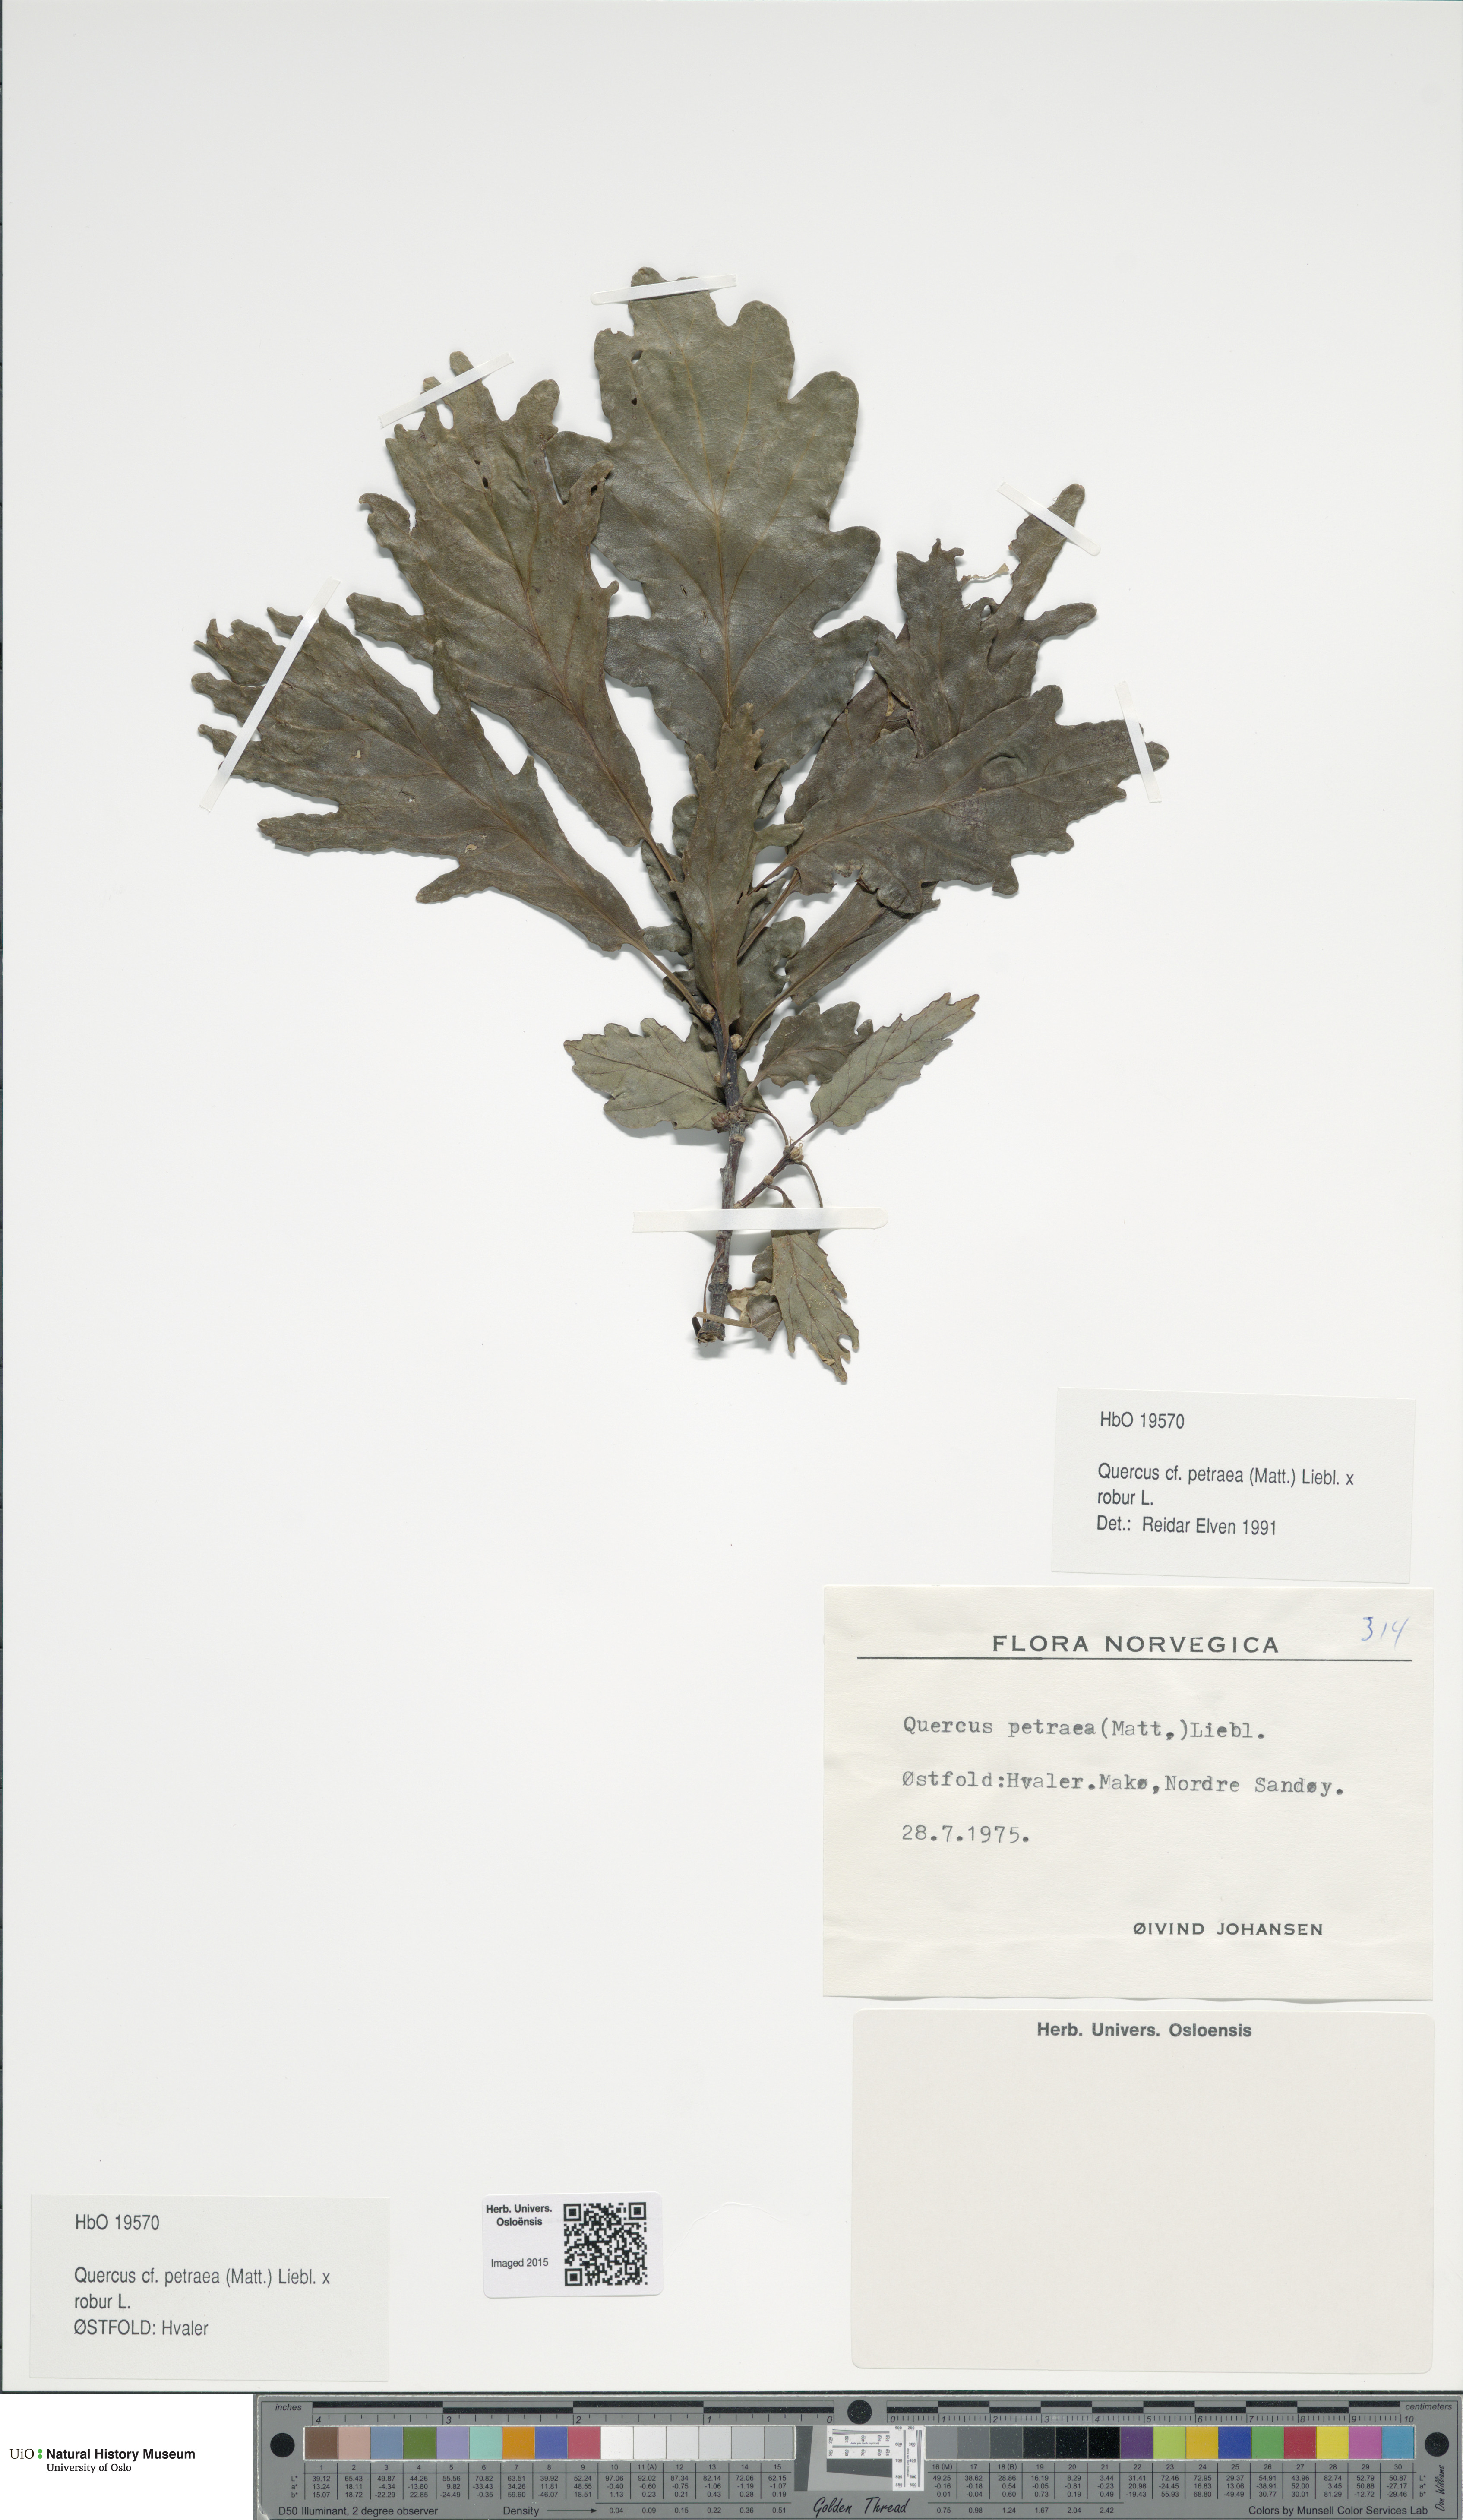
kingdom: Plantae
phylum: Tracheophyta
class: Magnoliopsida
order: Fagales
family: Fagaceae
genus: Quercus
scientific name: Quercus
